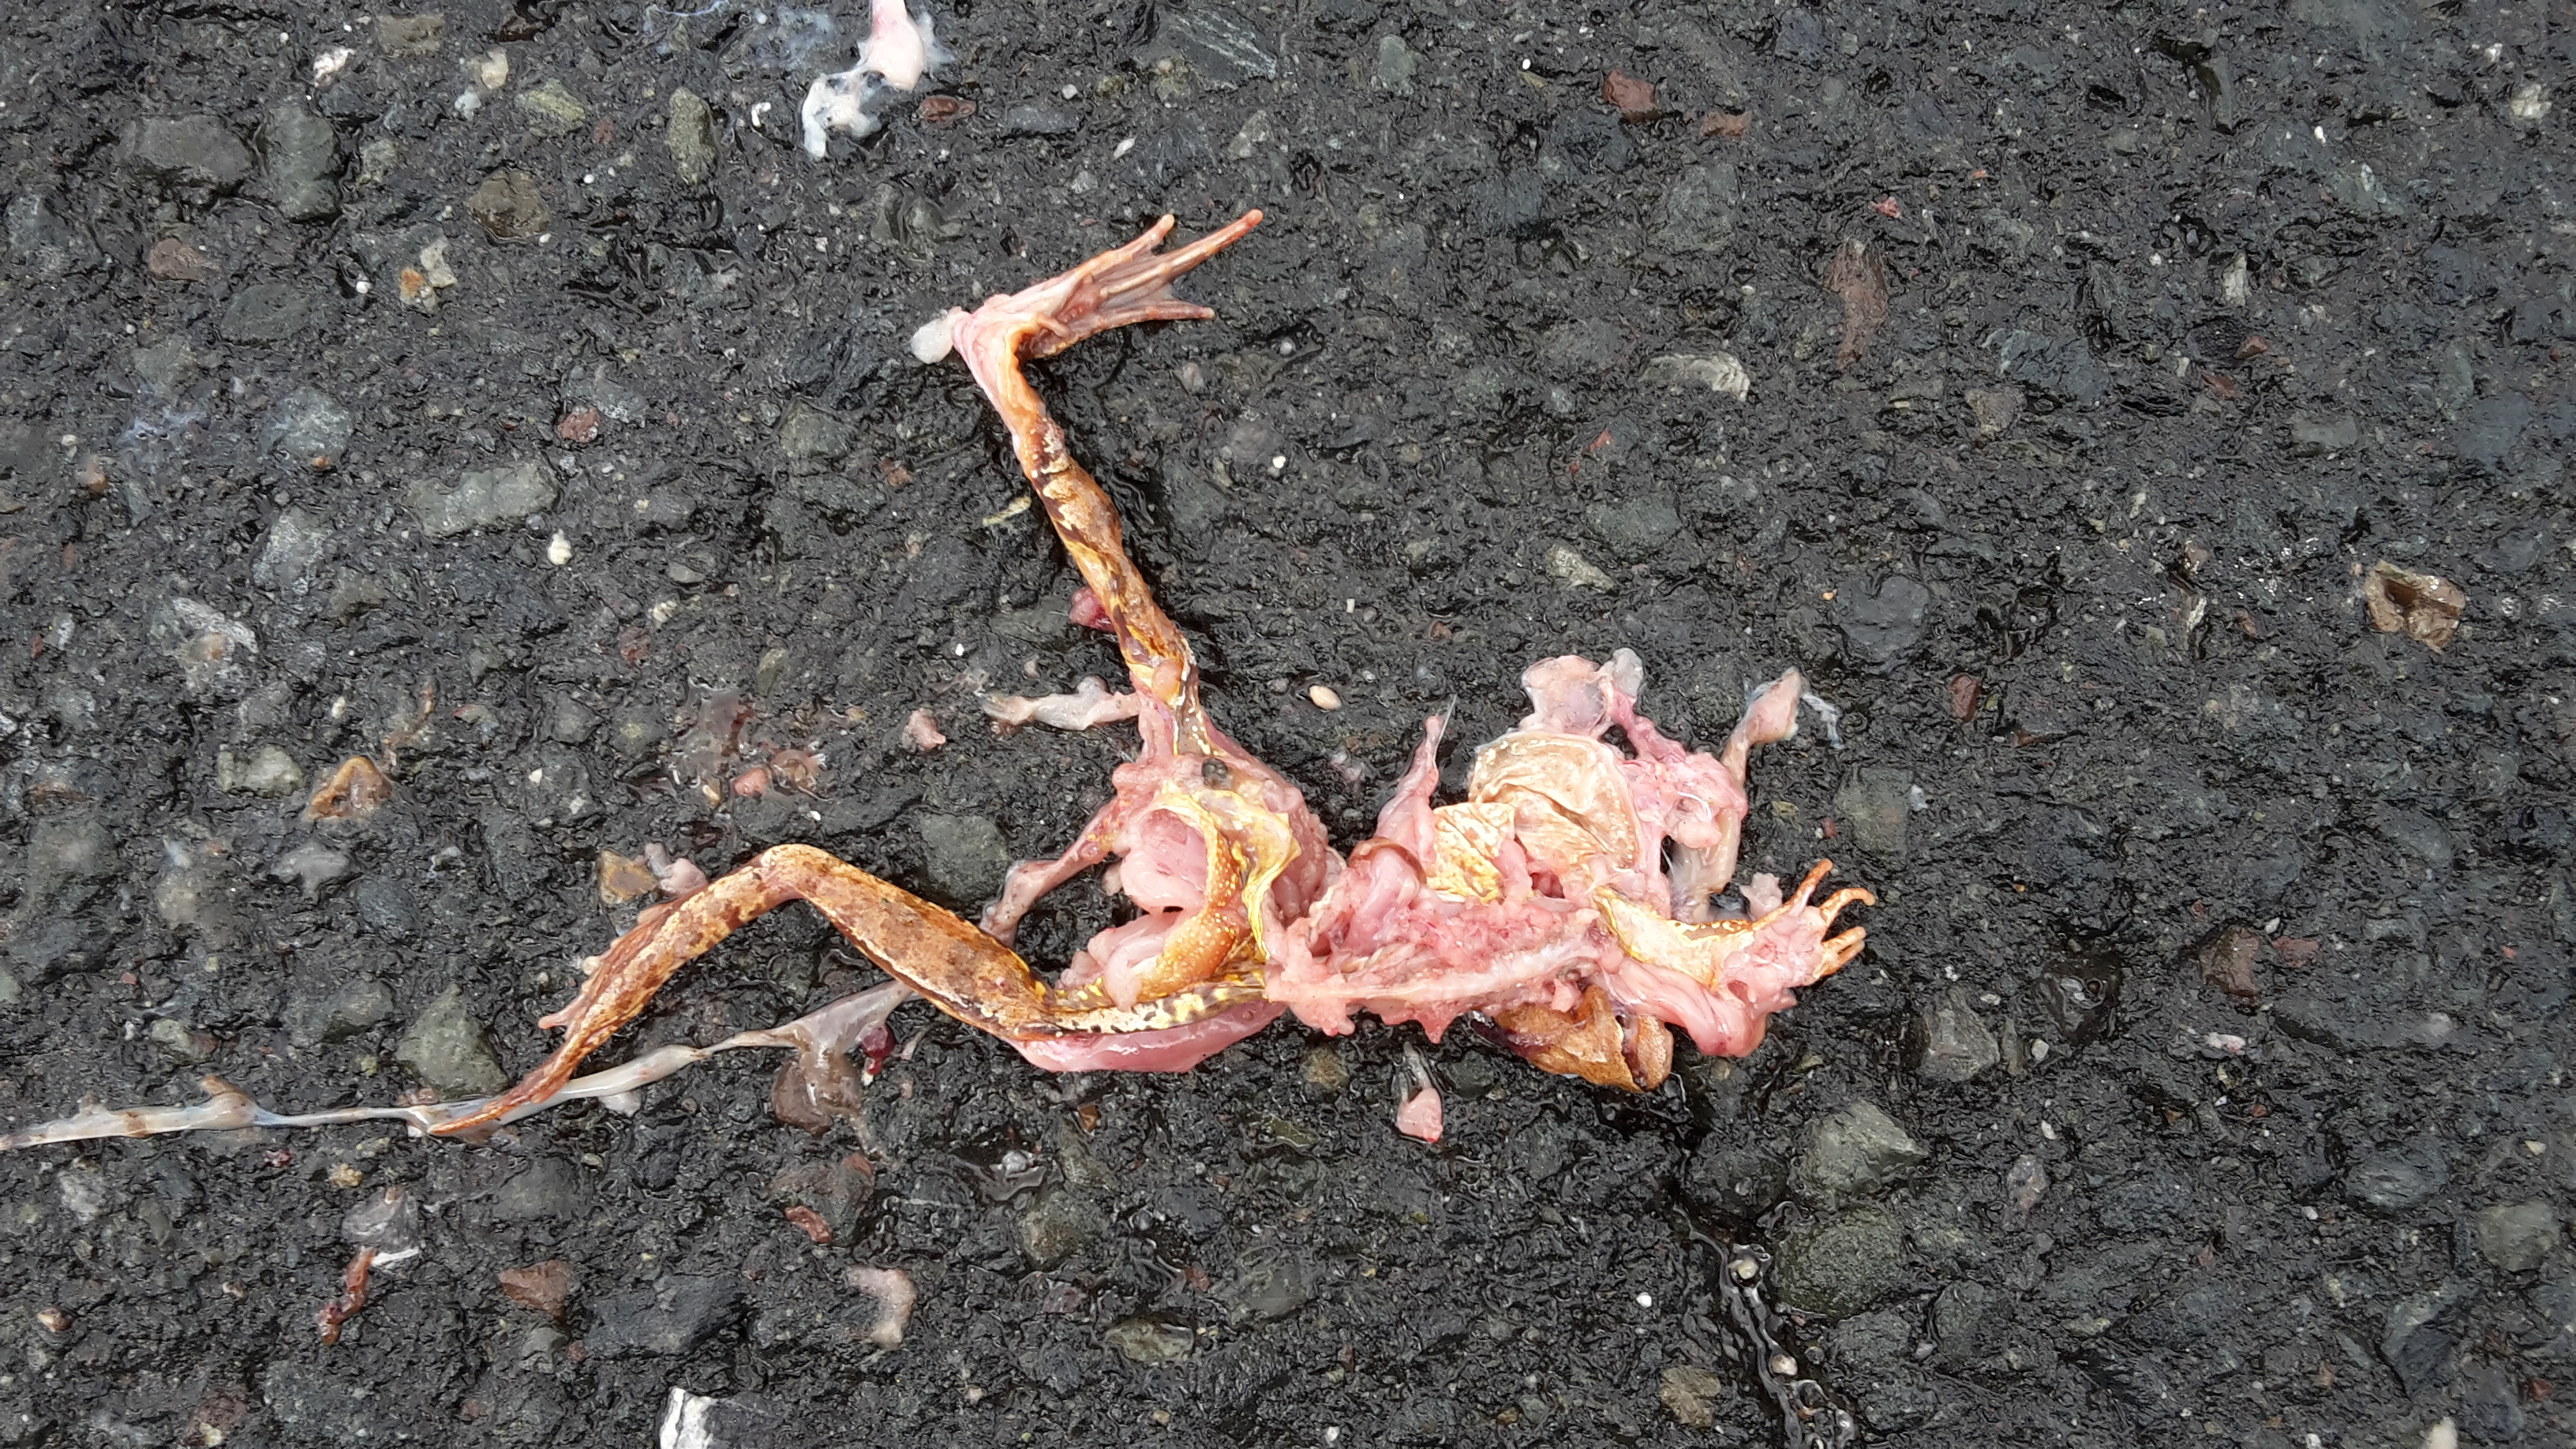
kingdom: Animalia
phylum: Chordata
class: Amphibia
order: Anura
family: Ranidae
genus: Rana
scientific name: Rana temporaria
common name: Common frog
